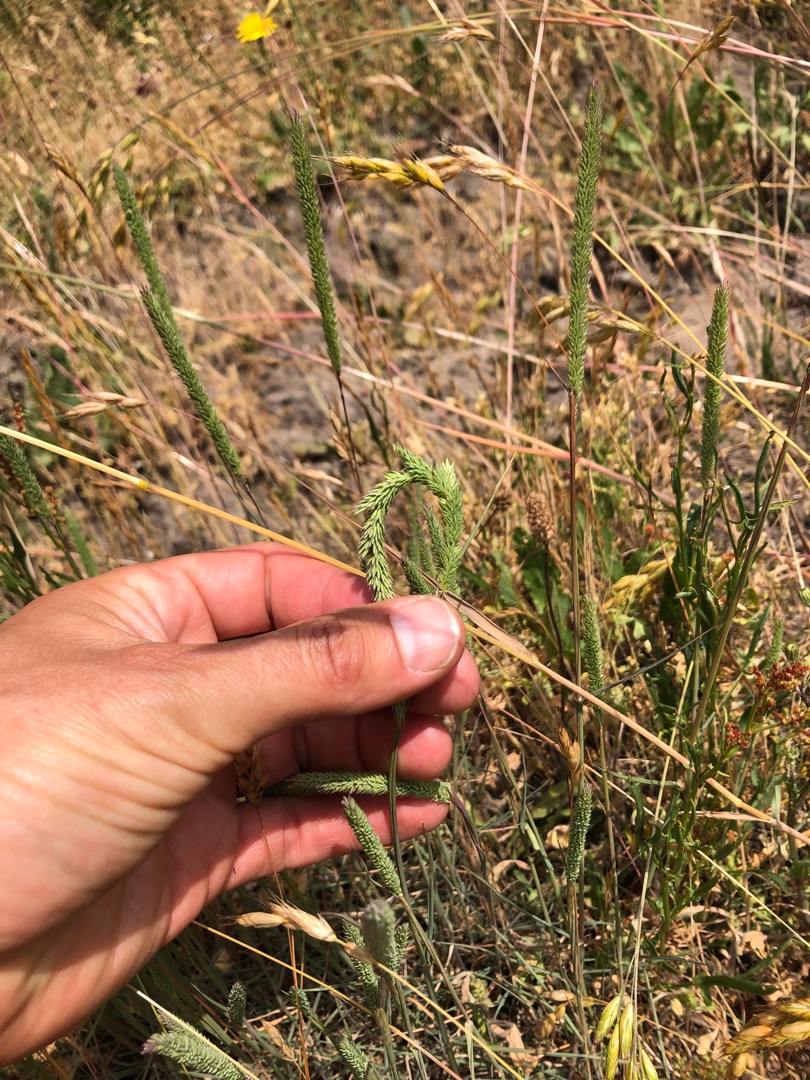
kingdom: Plantae
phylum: Tracheophyta
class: Liliopsida
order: Poales
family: Poaceae
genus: Phleum
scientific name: Phleum phleoides
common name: Glat rottehale
